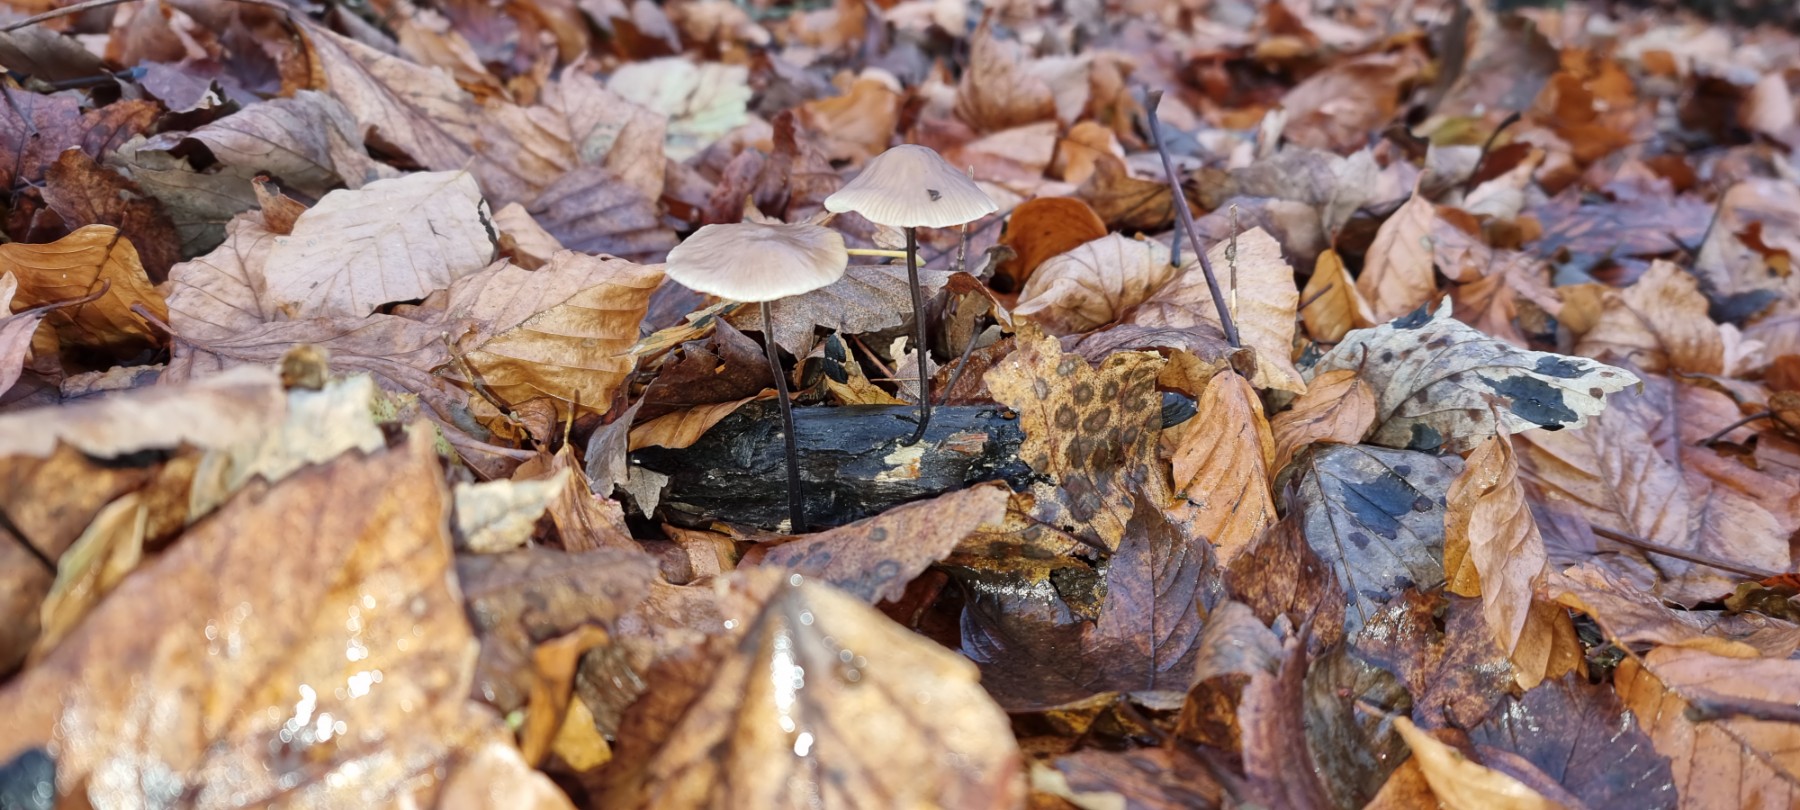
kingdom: Fungi
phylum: Basidiomycota
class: Agaricomycetes
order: Agaricales
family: Omphalotaceae
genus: Mycetinis
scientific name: Mycetinis alliaceus
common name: stor løghat
